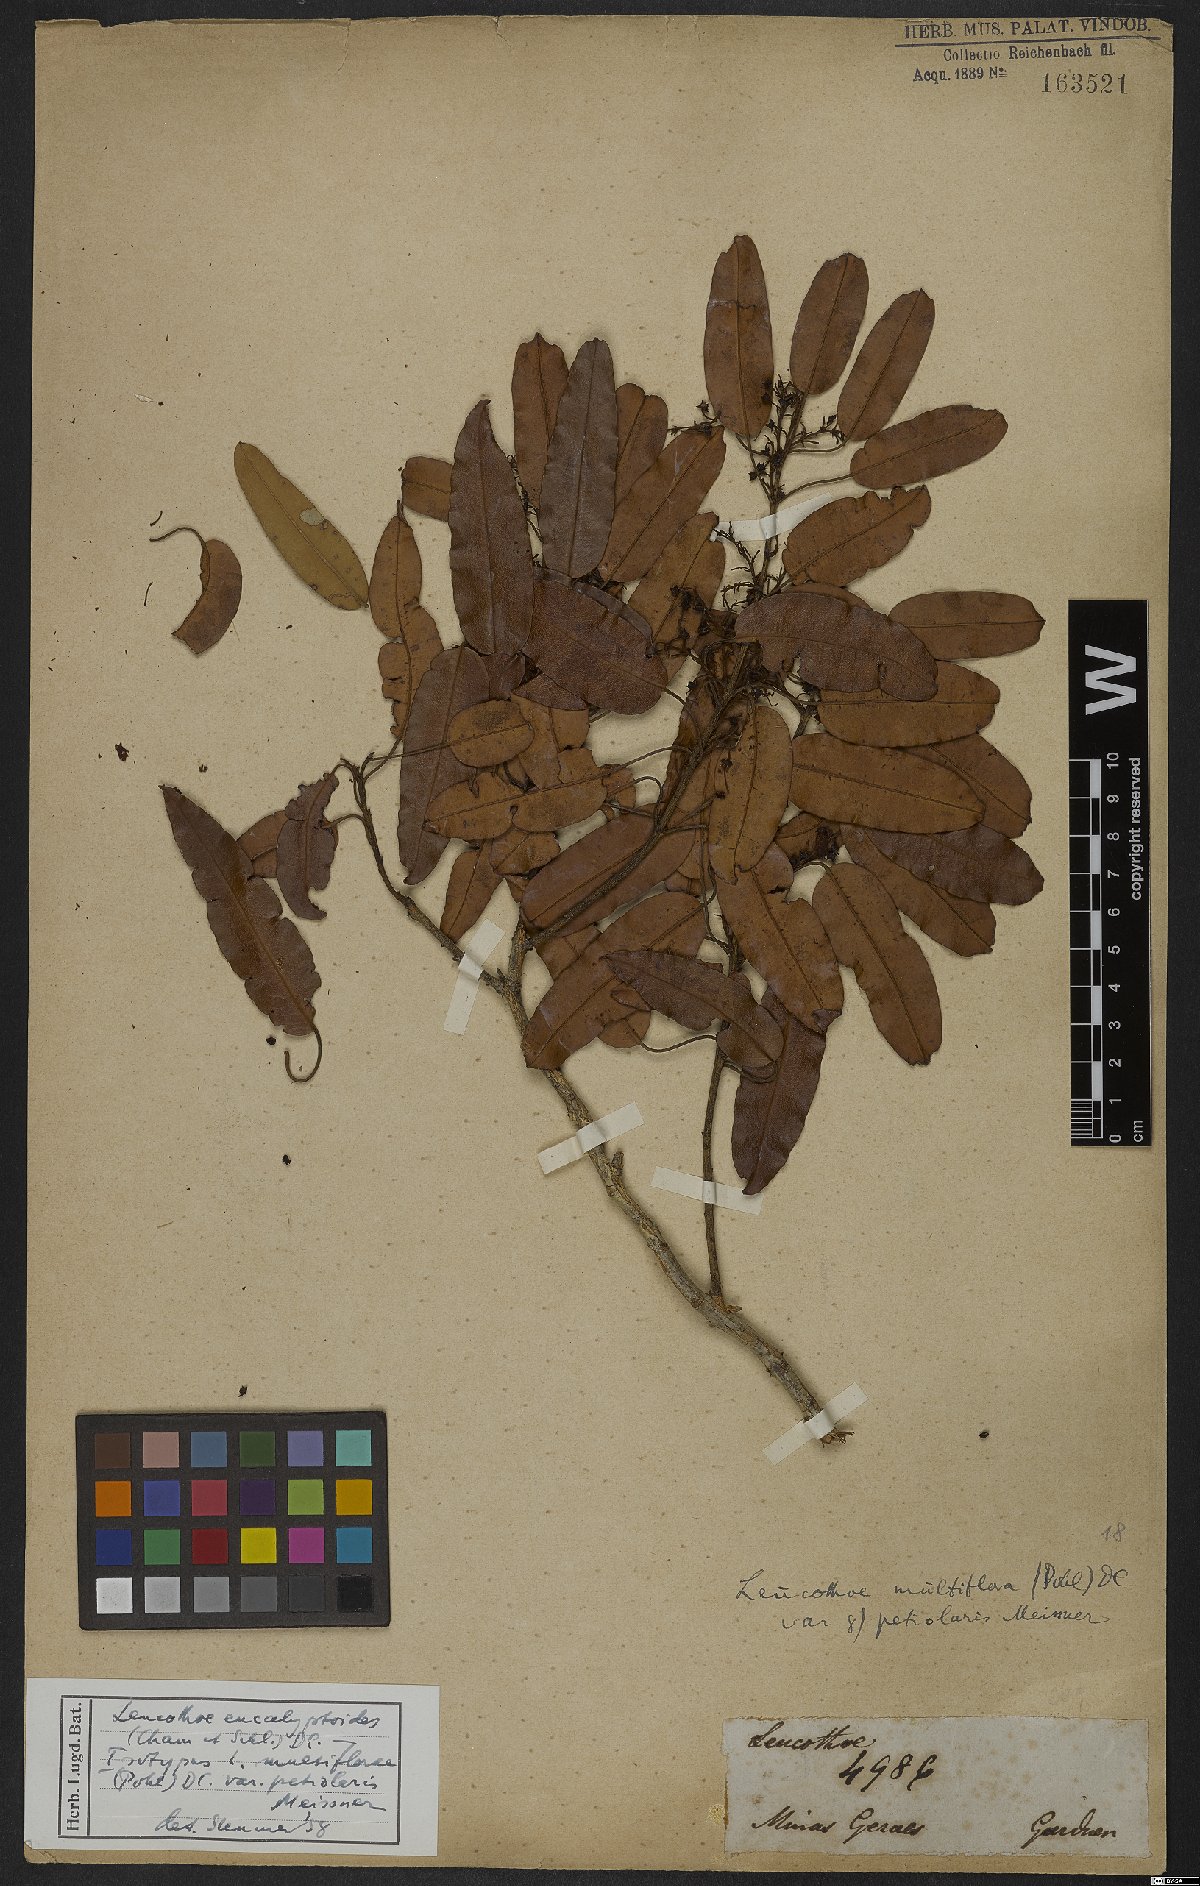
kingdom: Plantae
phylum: Tracheophyta
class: Magnoliopsida
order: Ericales
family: Ericaceae
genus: Agarista
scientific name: Agarista eucalyptoides
